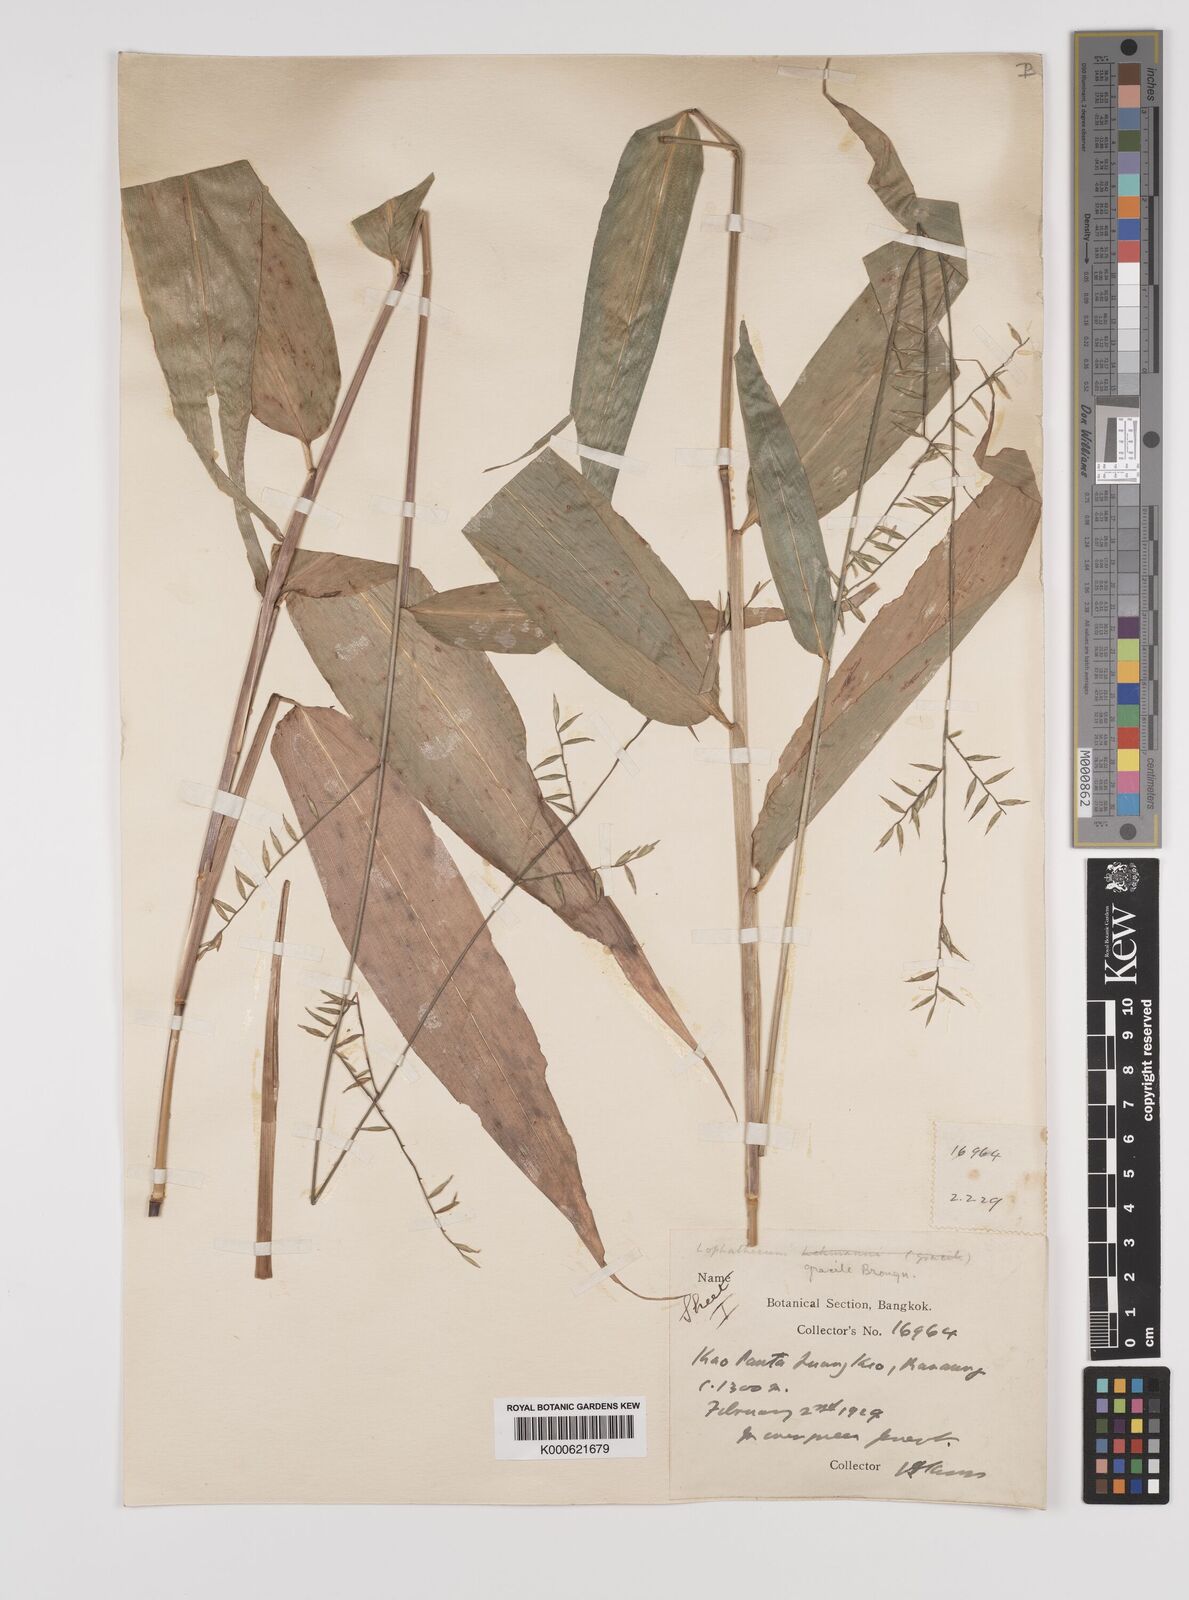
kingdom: Plantae
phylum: Tracheophyta
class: Liliopsida
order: Poales
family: Poaceae
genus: Lophatherum
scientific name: Lophatherum gracile
